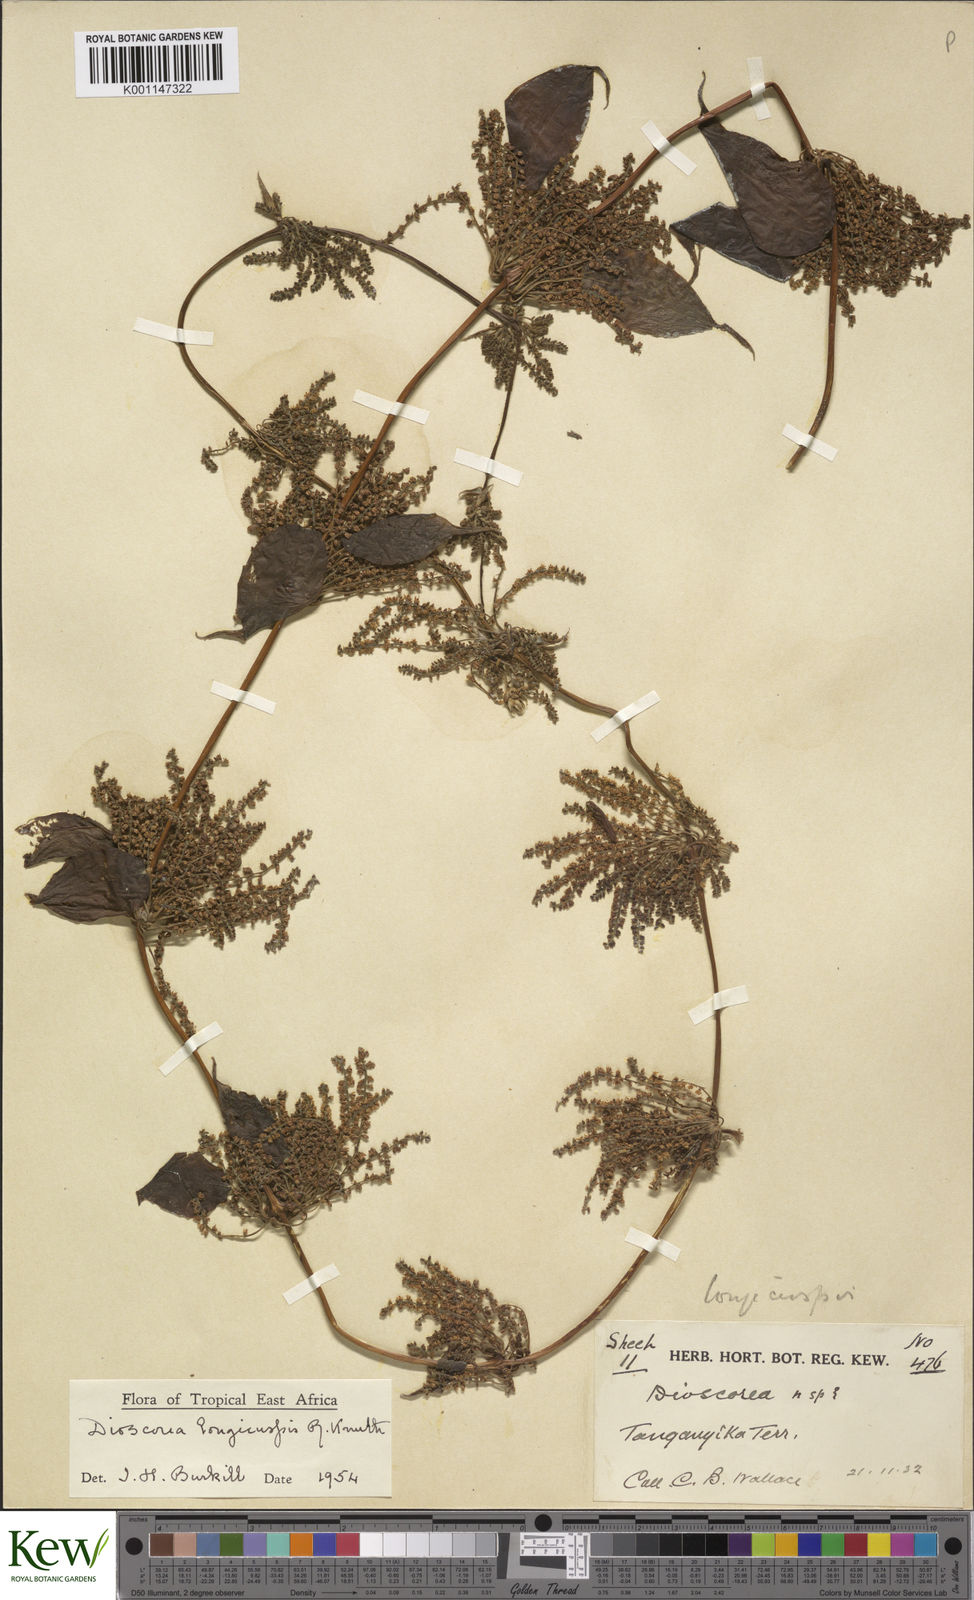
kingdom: Plantae
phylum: Tracheophyta
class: Liliopsida
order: Dioscoreales
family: Dioscoreaceae
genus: Dioscorea
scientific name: Dioscorea longicuspis
